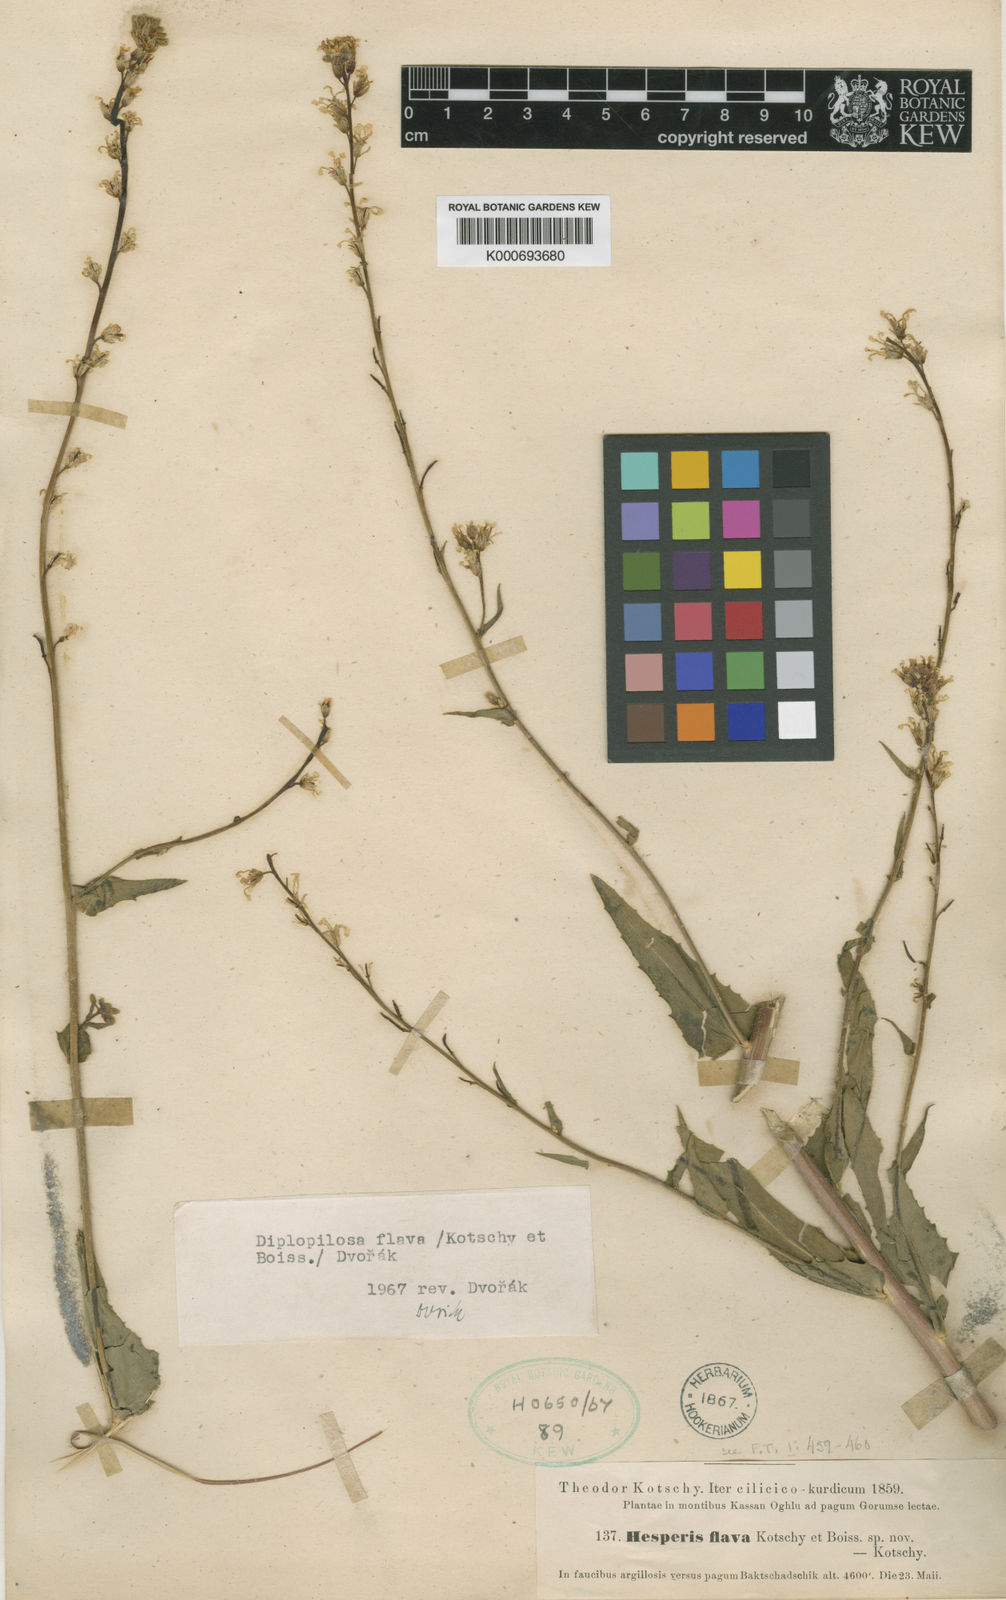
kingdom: Plantae
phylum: Tracheophyta
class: Magnoliopsida
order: Brassicales
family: Brassicaceae
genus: Hesperis
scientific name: Hesperis
